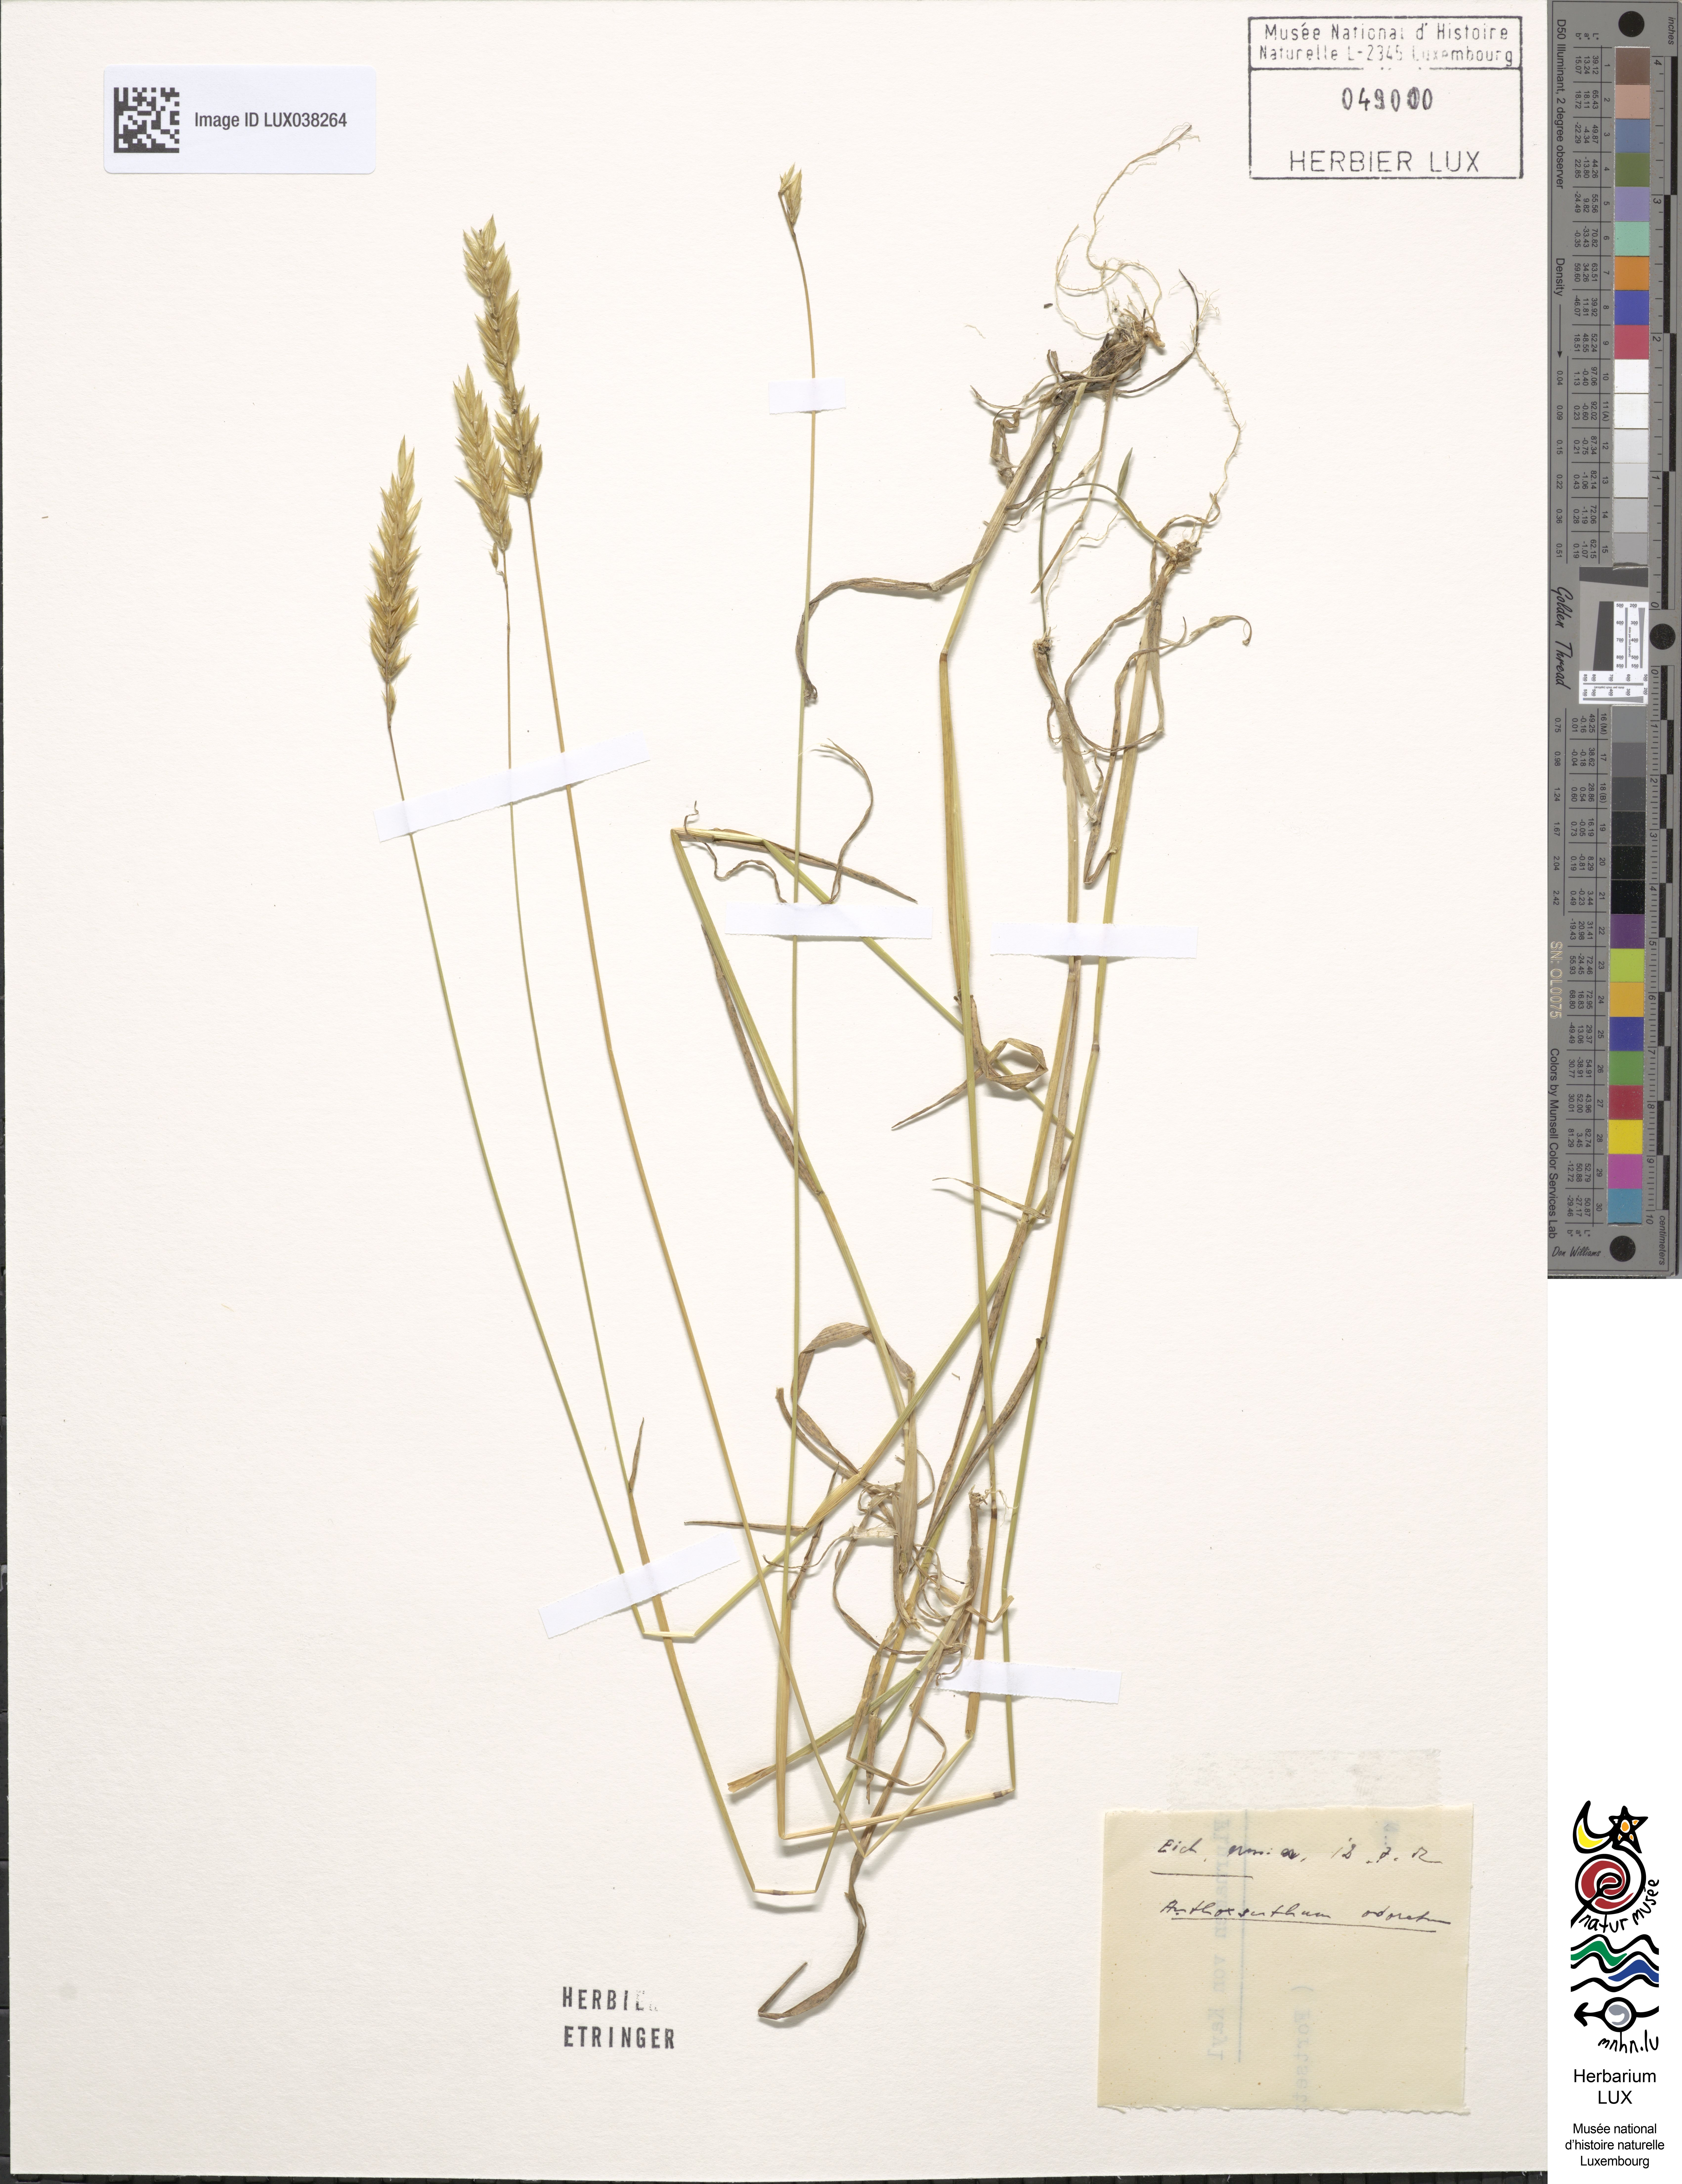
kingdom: Plantae
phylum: Tracheophyta
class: Liliopsida
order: Poales
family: Poaceae
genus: Anthoxanthum
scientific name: Anthoxanthum odoratum
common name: Sweet vernalgrass
